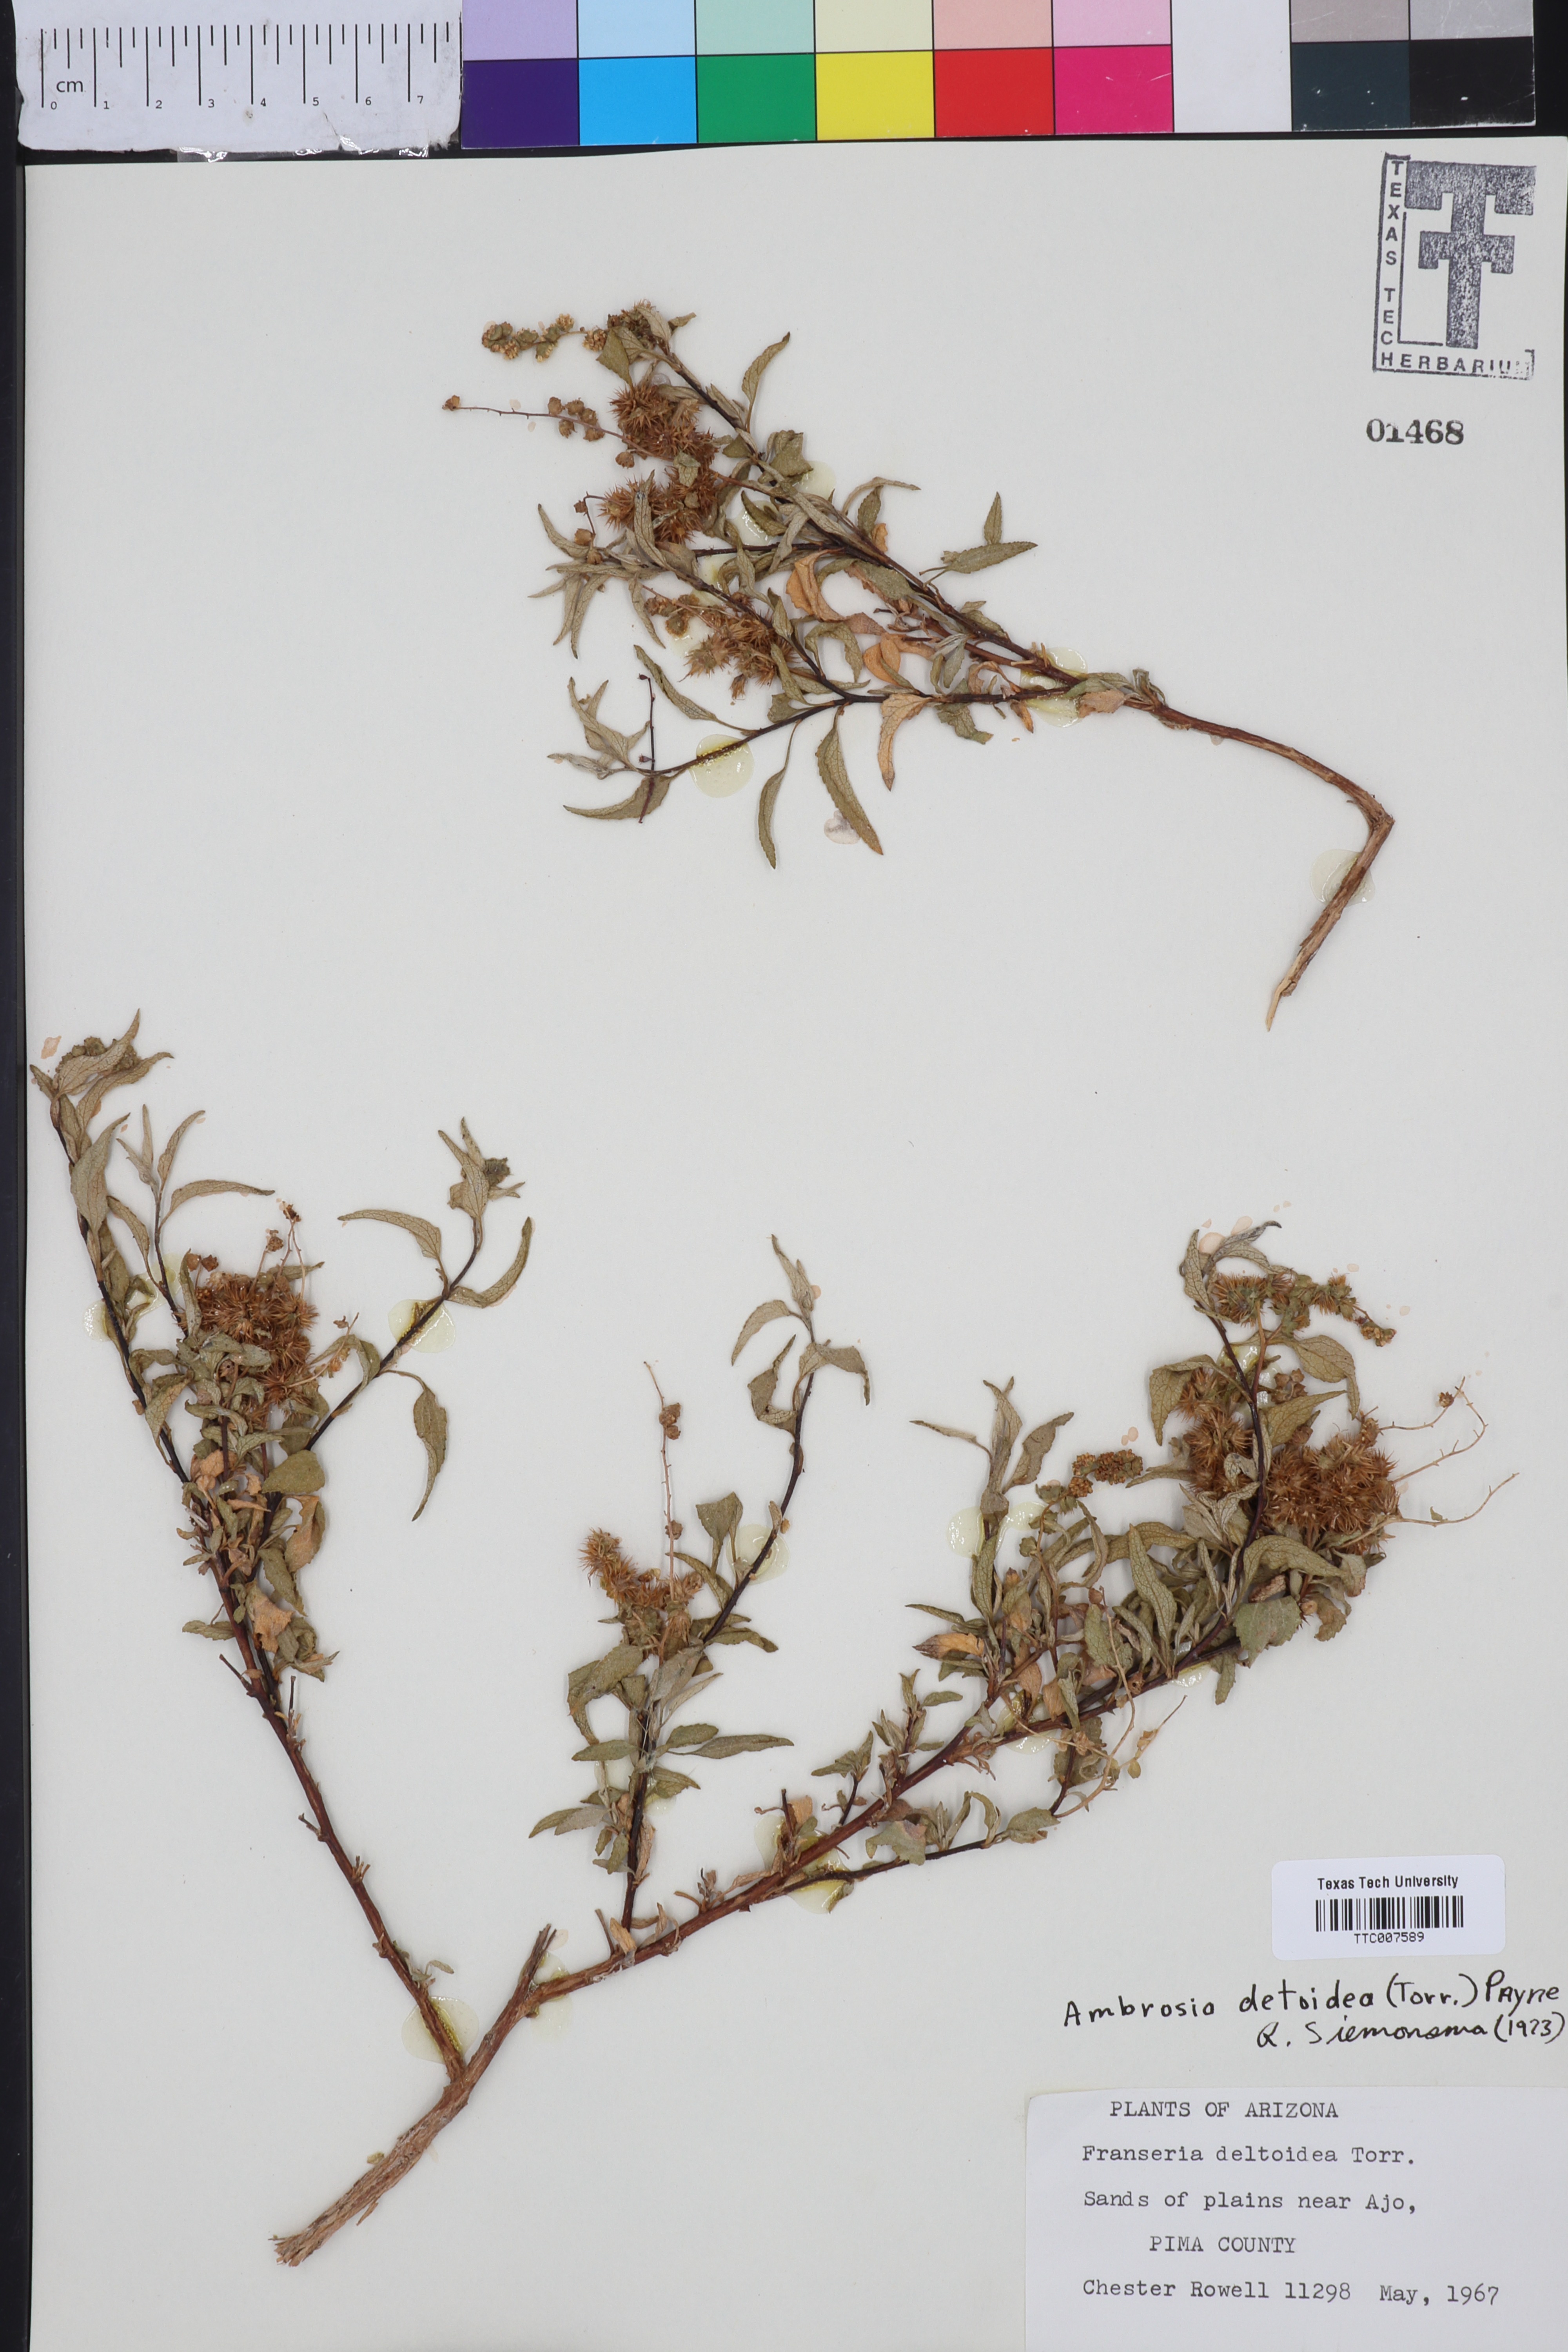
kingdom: Plantae
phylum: Tracheophyta
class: Magnoliopsida
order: Asterales
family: Asteraceae
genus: Ambrosia
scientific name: Ambrosia
